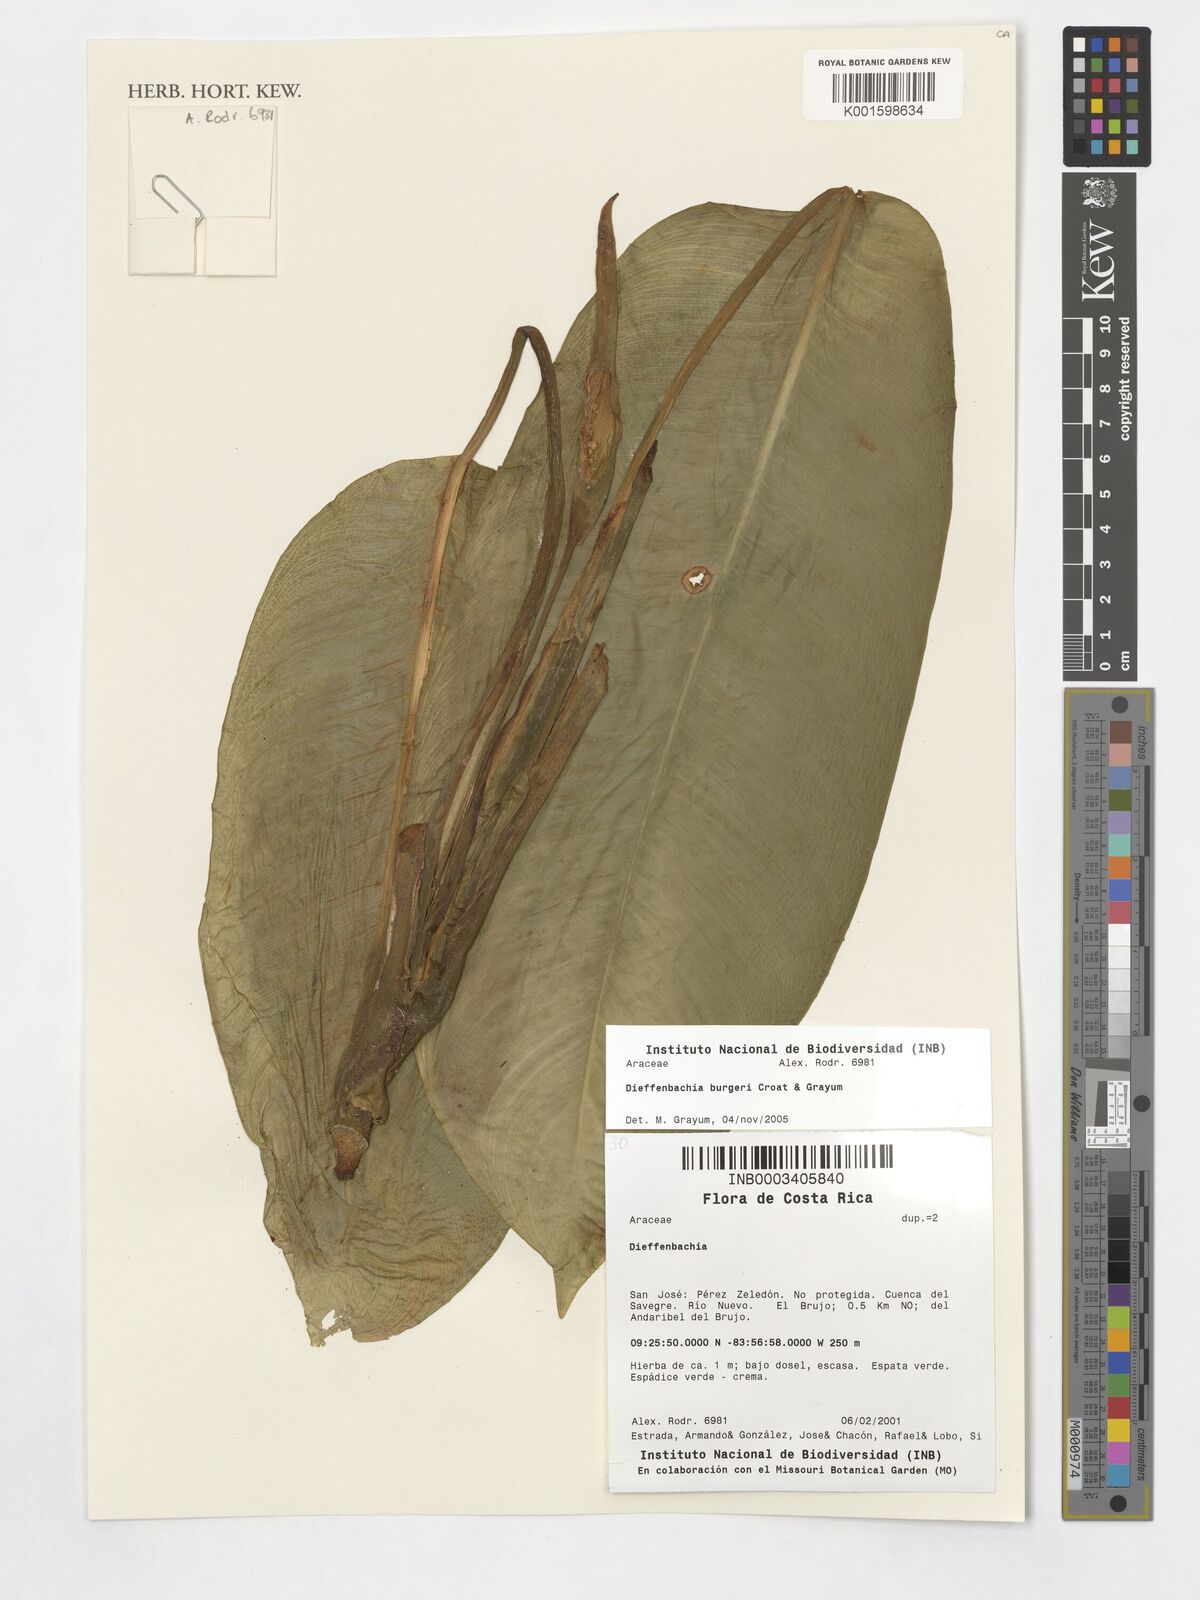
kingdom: Plantae
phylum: Tracheophyta
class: Liliopsida
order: Alismatales
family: Araceae
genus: Dieffenbachia
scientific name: Dieffenbachia burgeri
